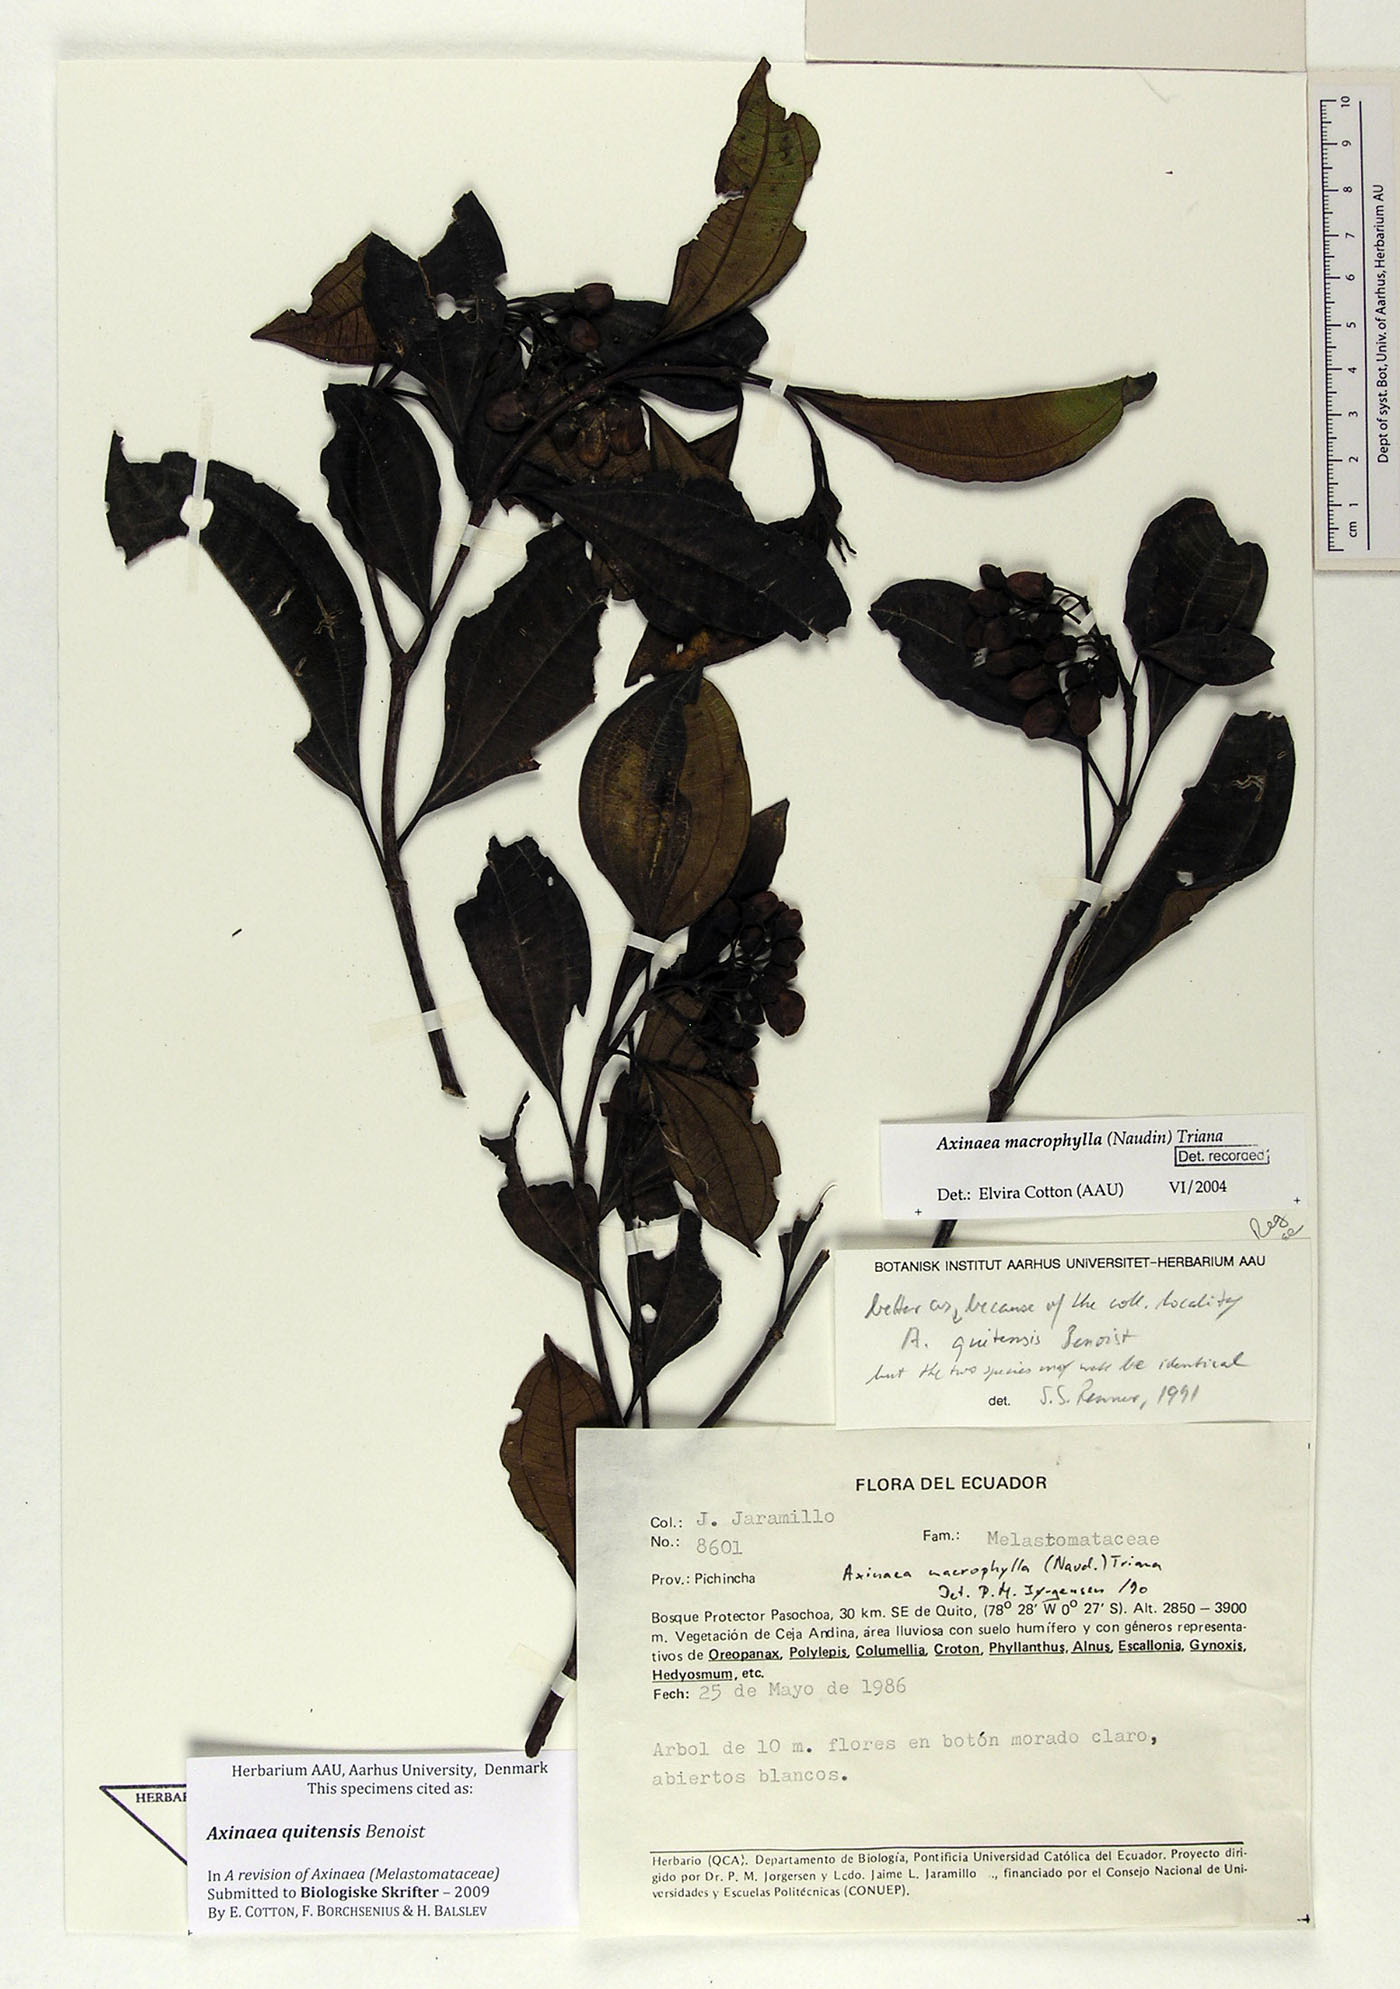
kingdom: Plantae
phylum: Tracheophyta
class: Magnoliopsida
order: Myrtales
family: Melastomataceae
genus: Axinaea
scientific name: Axinaea quitensis
